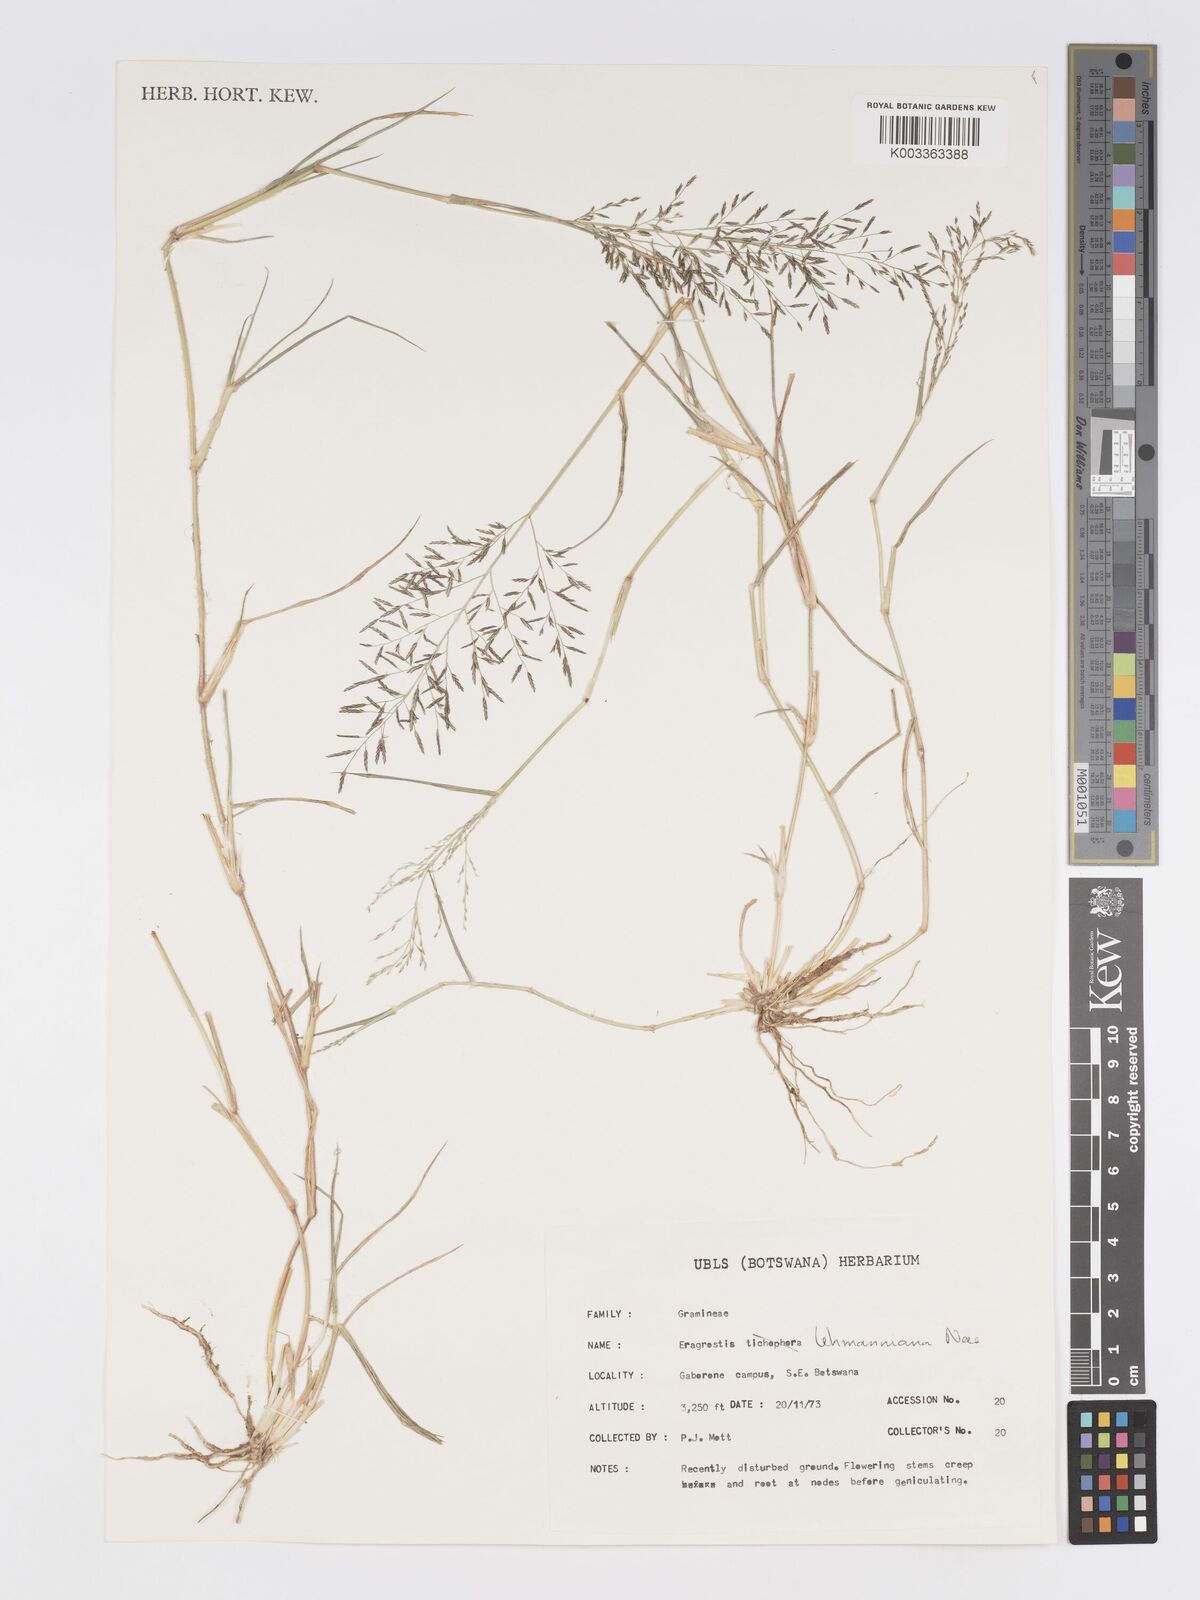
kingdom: Plantae
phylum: Tracheophyta
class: Liliopsida
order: Poales
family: Poaceae
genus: Eragrostis
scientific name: Eragrostis lehmanniana
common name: Lehmann lovegrass
